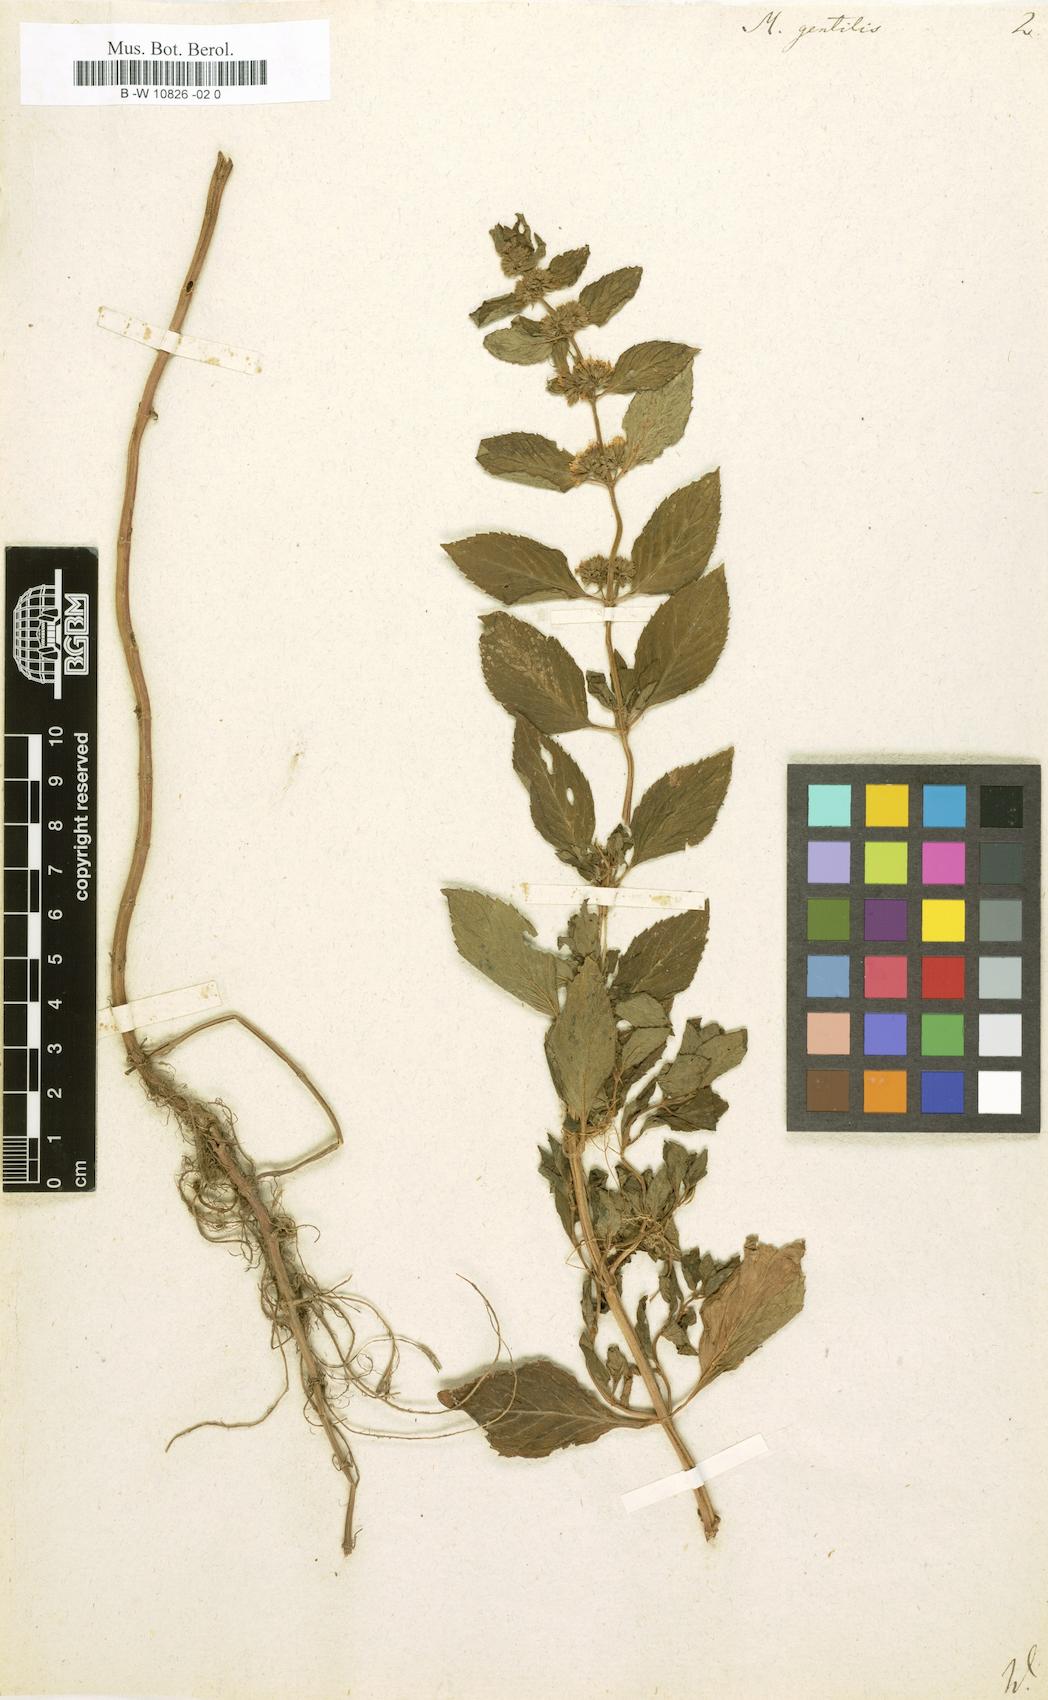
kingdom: Plantae
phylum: Tracheophyta
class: Magnoliopsida
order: Lamiales
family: Lamiaceae
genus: Mentha
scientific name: Mentha gentilis
